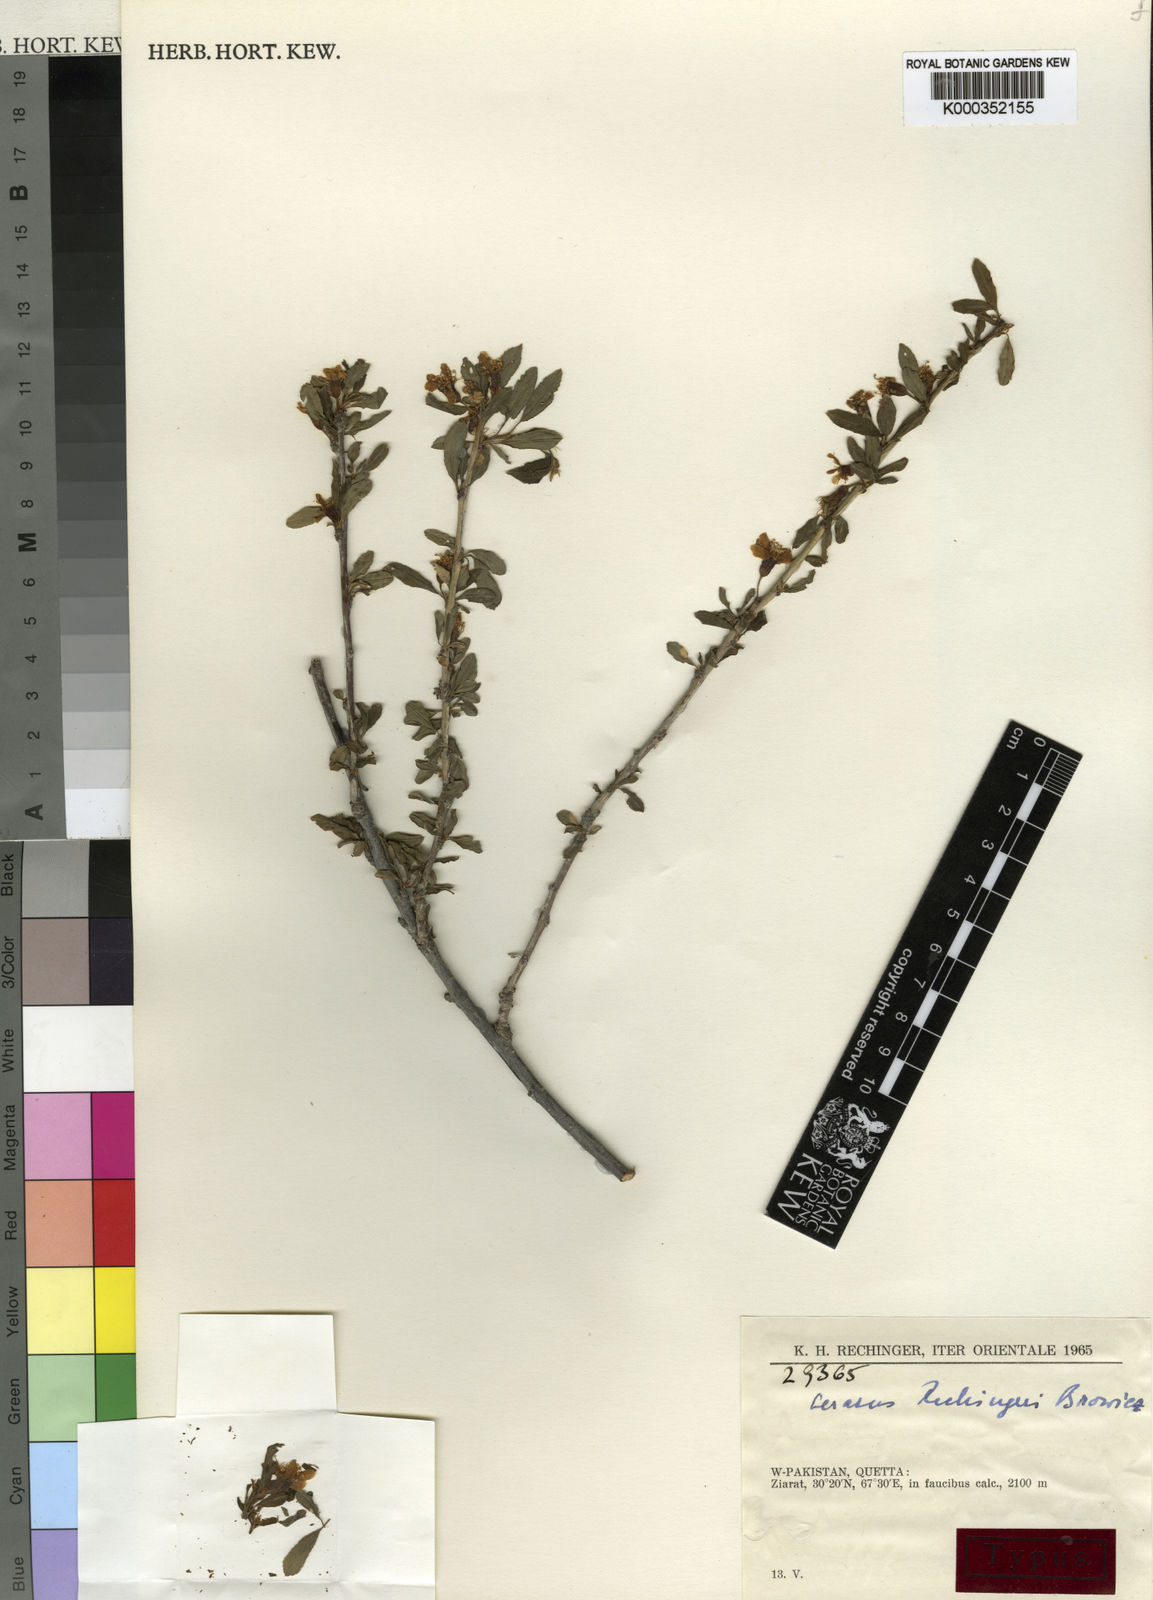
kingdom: Plantae
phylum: Tracheophyta
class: Magnoliopsida
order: Rosales
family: Rosaceae
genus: Prunus
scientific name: Prunus
